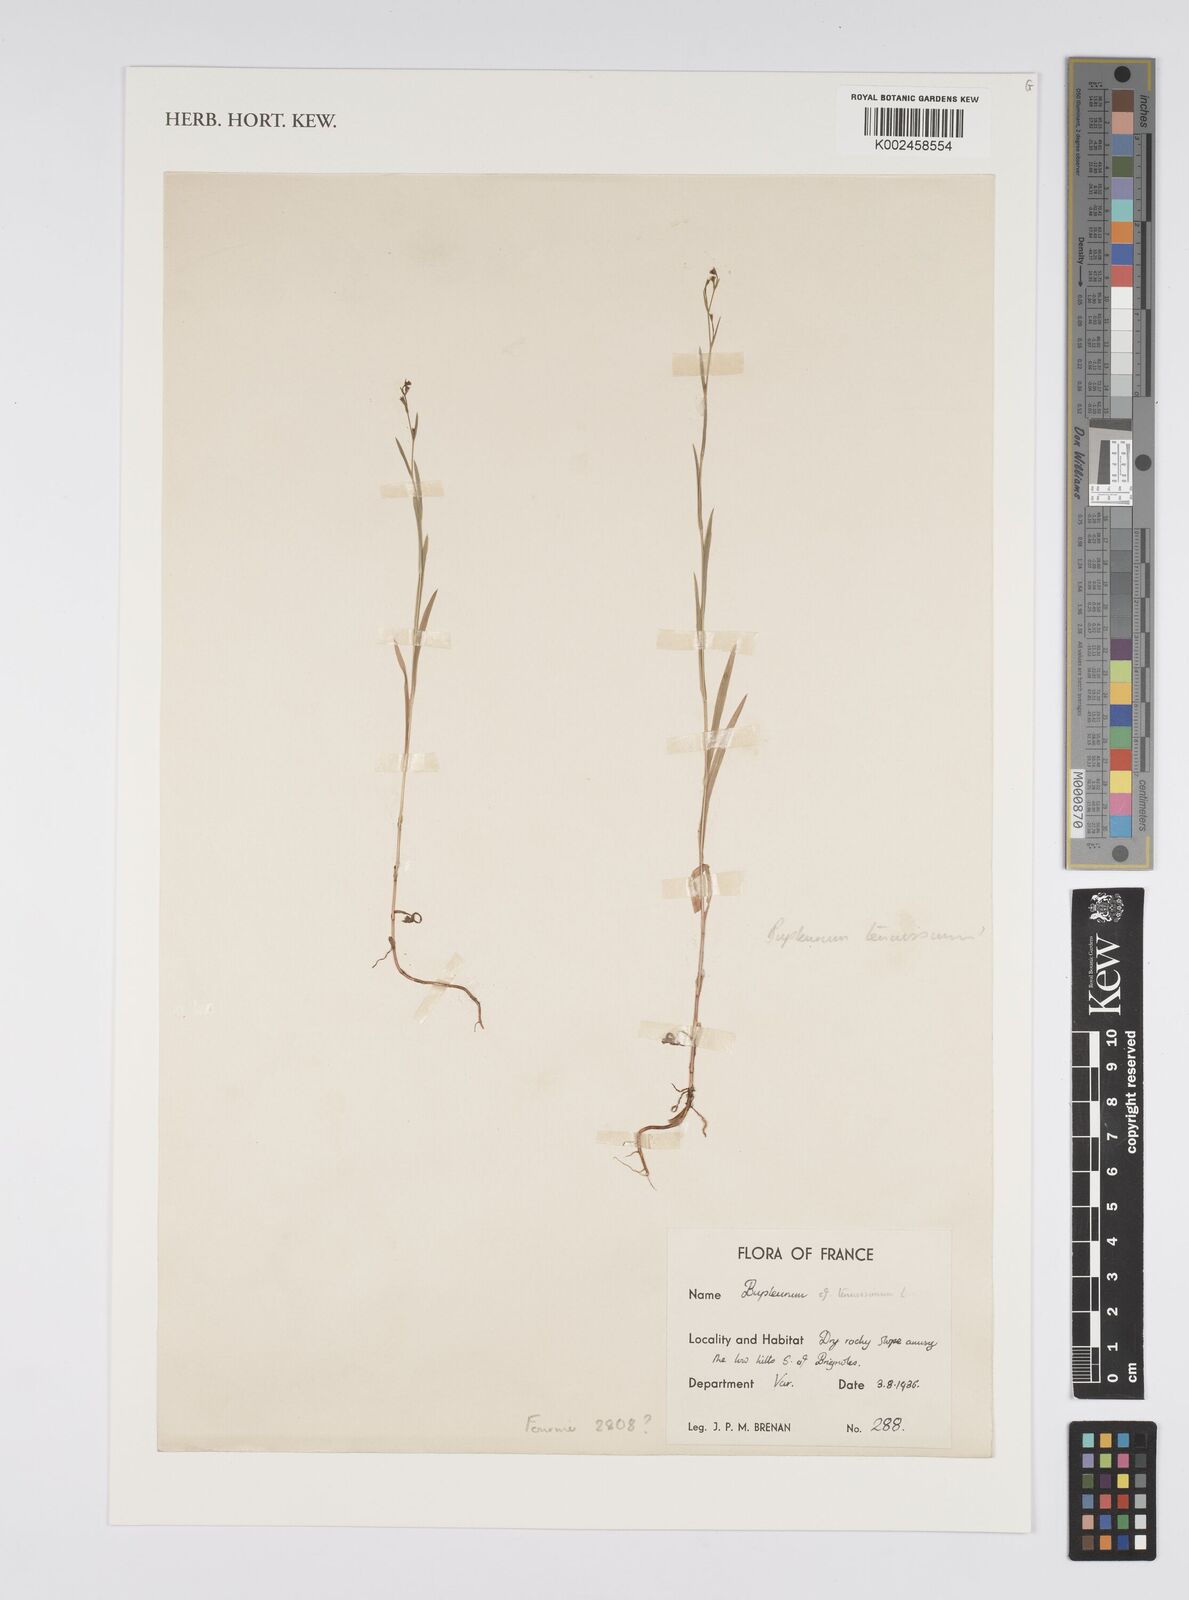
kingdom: Plantae
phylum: Tracheophyta
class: Magnoliopsida
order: Apiales
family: Apiaceae
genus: Bupleurum
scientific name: Bupleurum tenuissimum
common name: Slender hare's-ear
